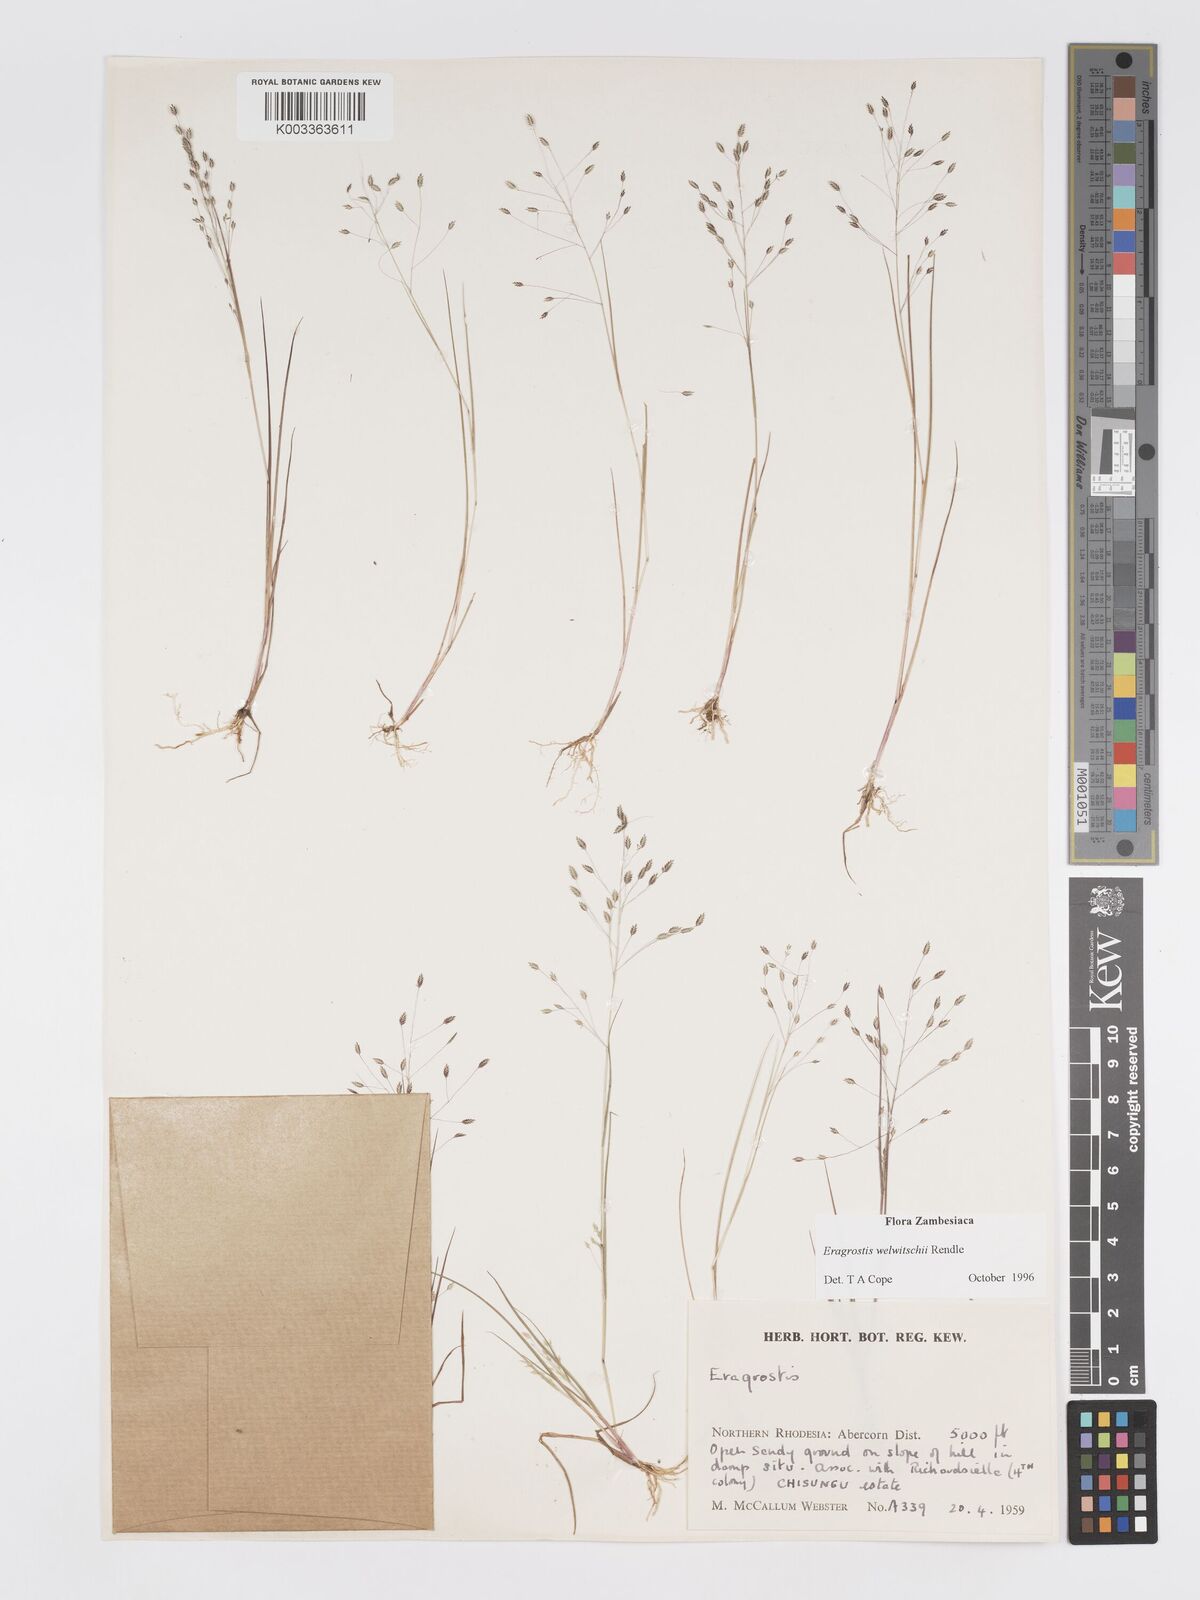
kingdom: Plantae
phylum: Tracheophyta
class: Liliopsida
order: Poales
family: Poaceae
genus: Eragrostis
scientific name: Eragrostis welwitschii
